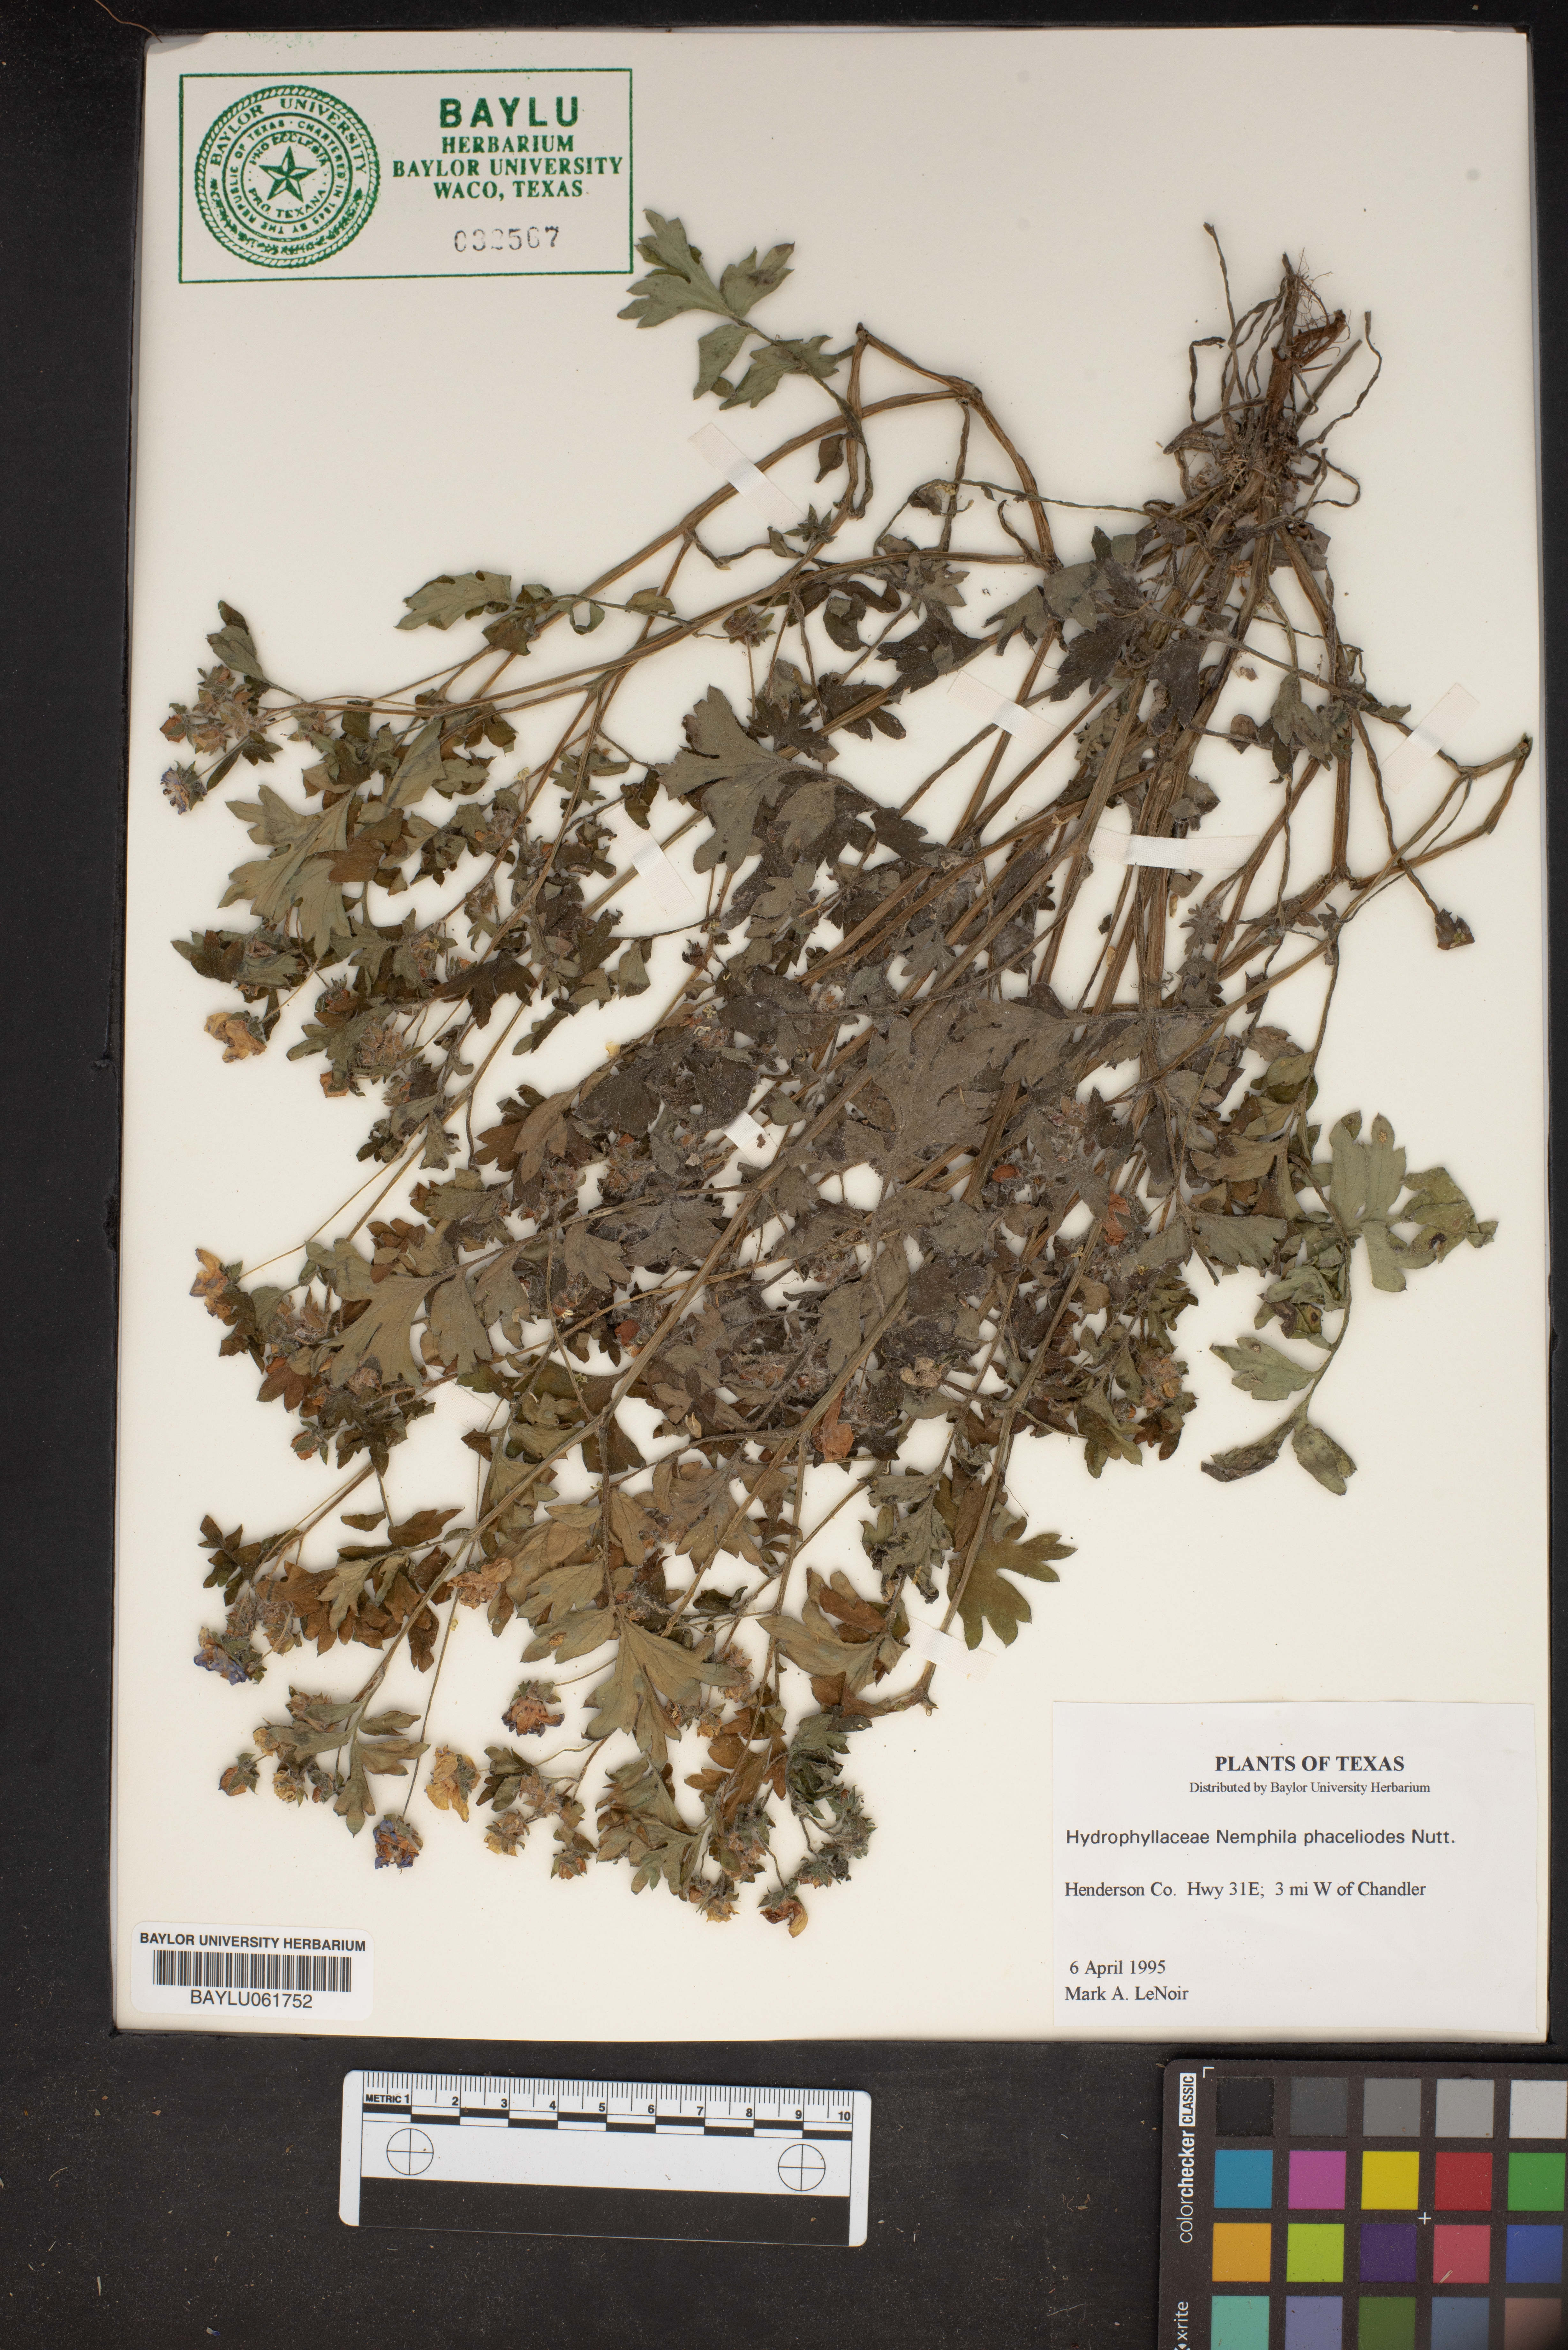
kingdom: Plantae
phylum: Tracheophyta
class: Magnoliopsida
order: Boraginales
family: Hydrophyllaceae
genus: Nemophila
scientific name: Nemophila phacelioides
